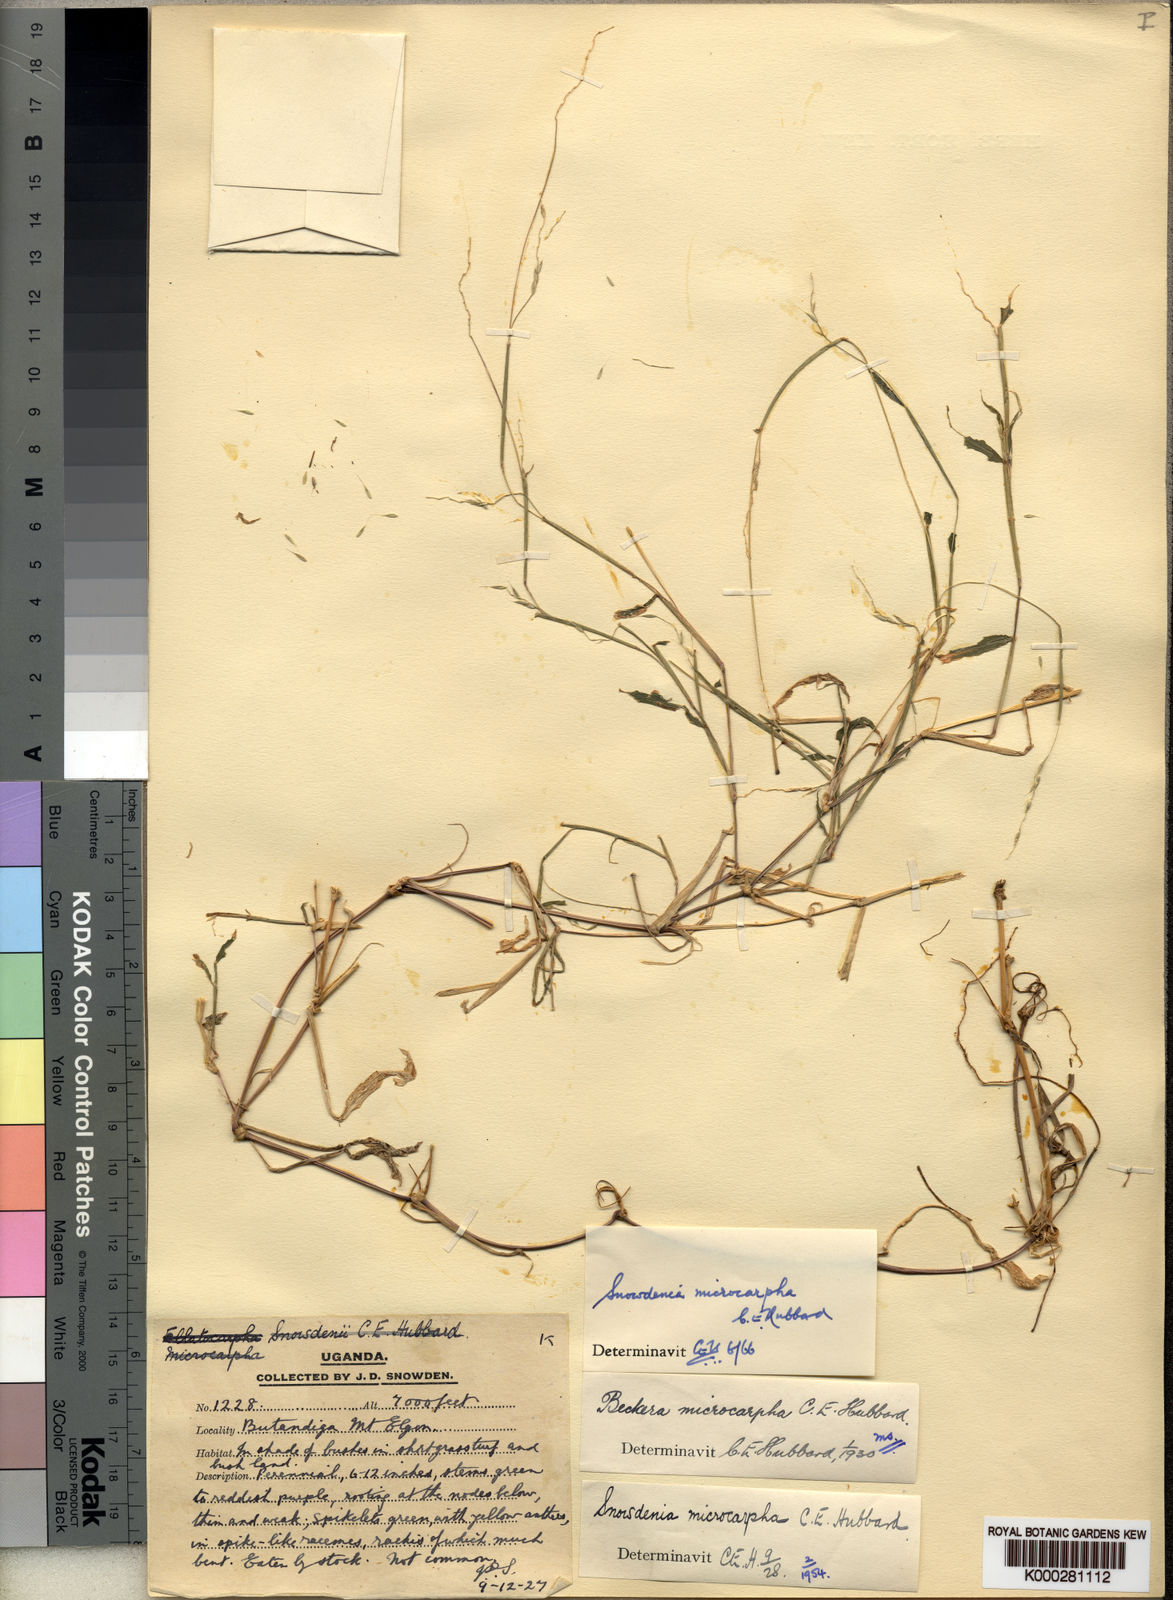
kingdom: Plantae
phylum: Tracheophyta
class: Liliopsida
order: Poales
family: Poaceae
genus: Snowdenia
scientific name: Snowdenia microcarpha
